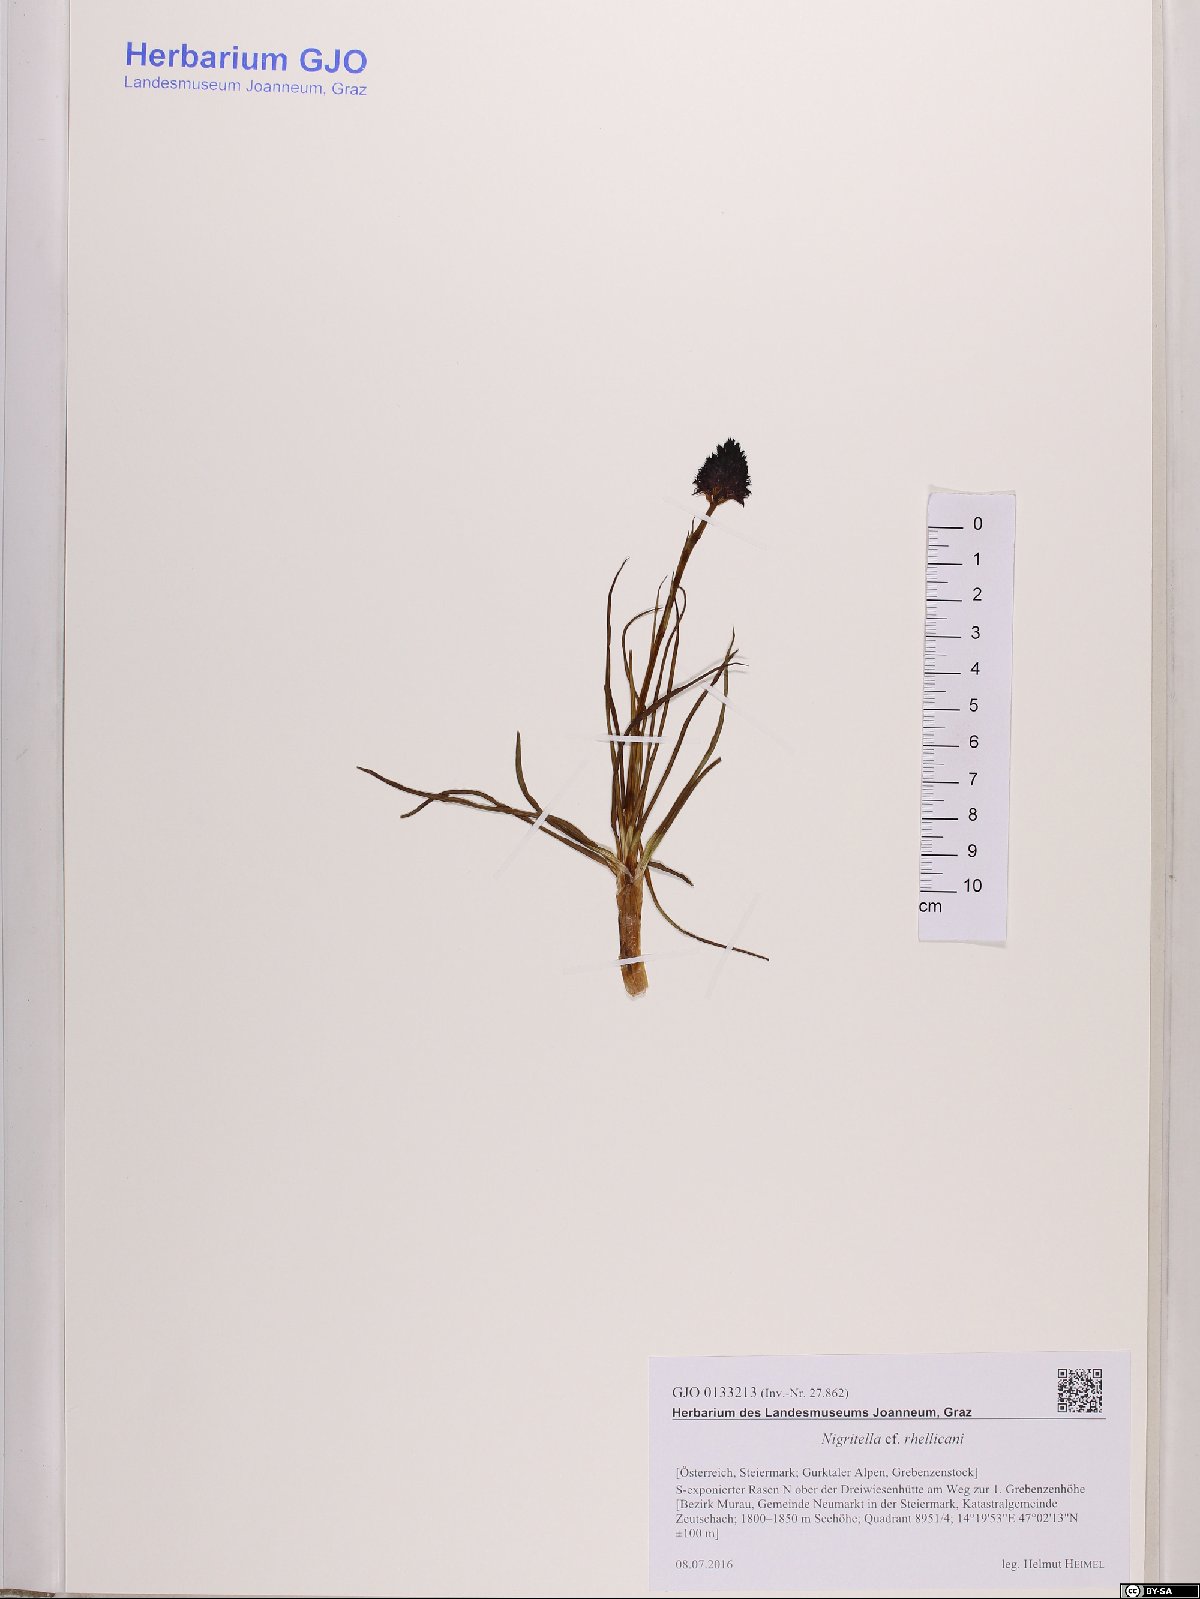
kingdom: Plantae
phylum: Tracheophyta
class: Liliopsida
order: Asparagales
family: Orchidaceae
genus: Gymnadenia
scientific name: Gymnadenia rhellicani
